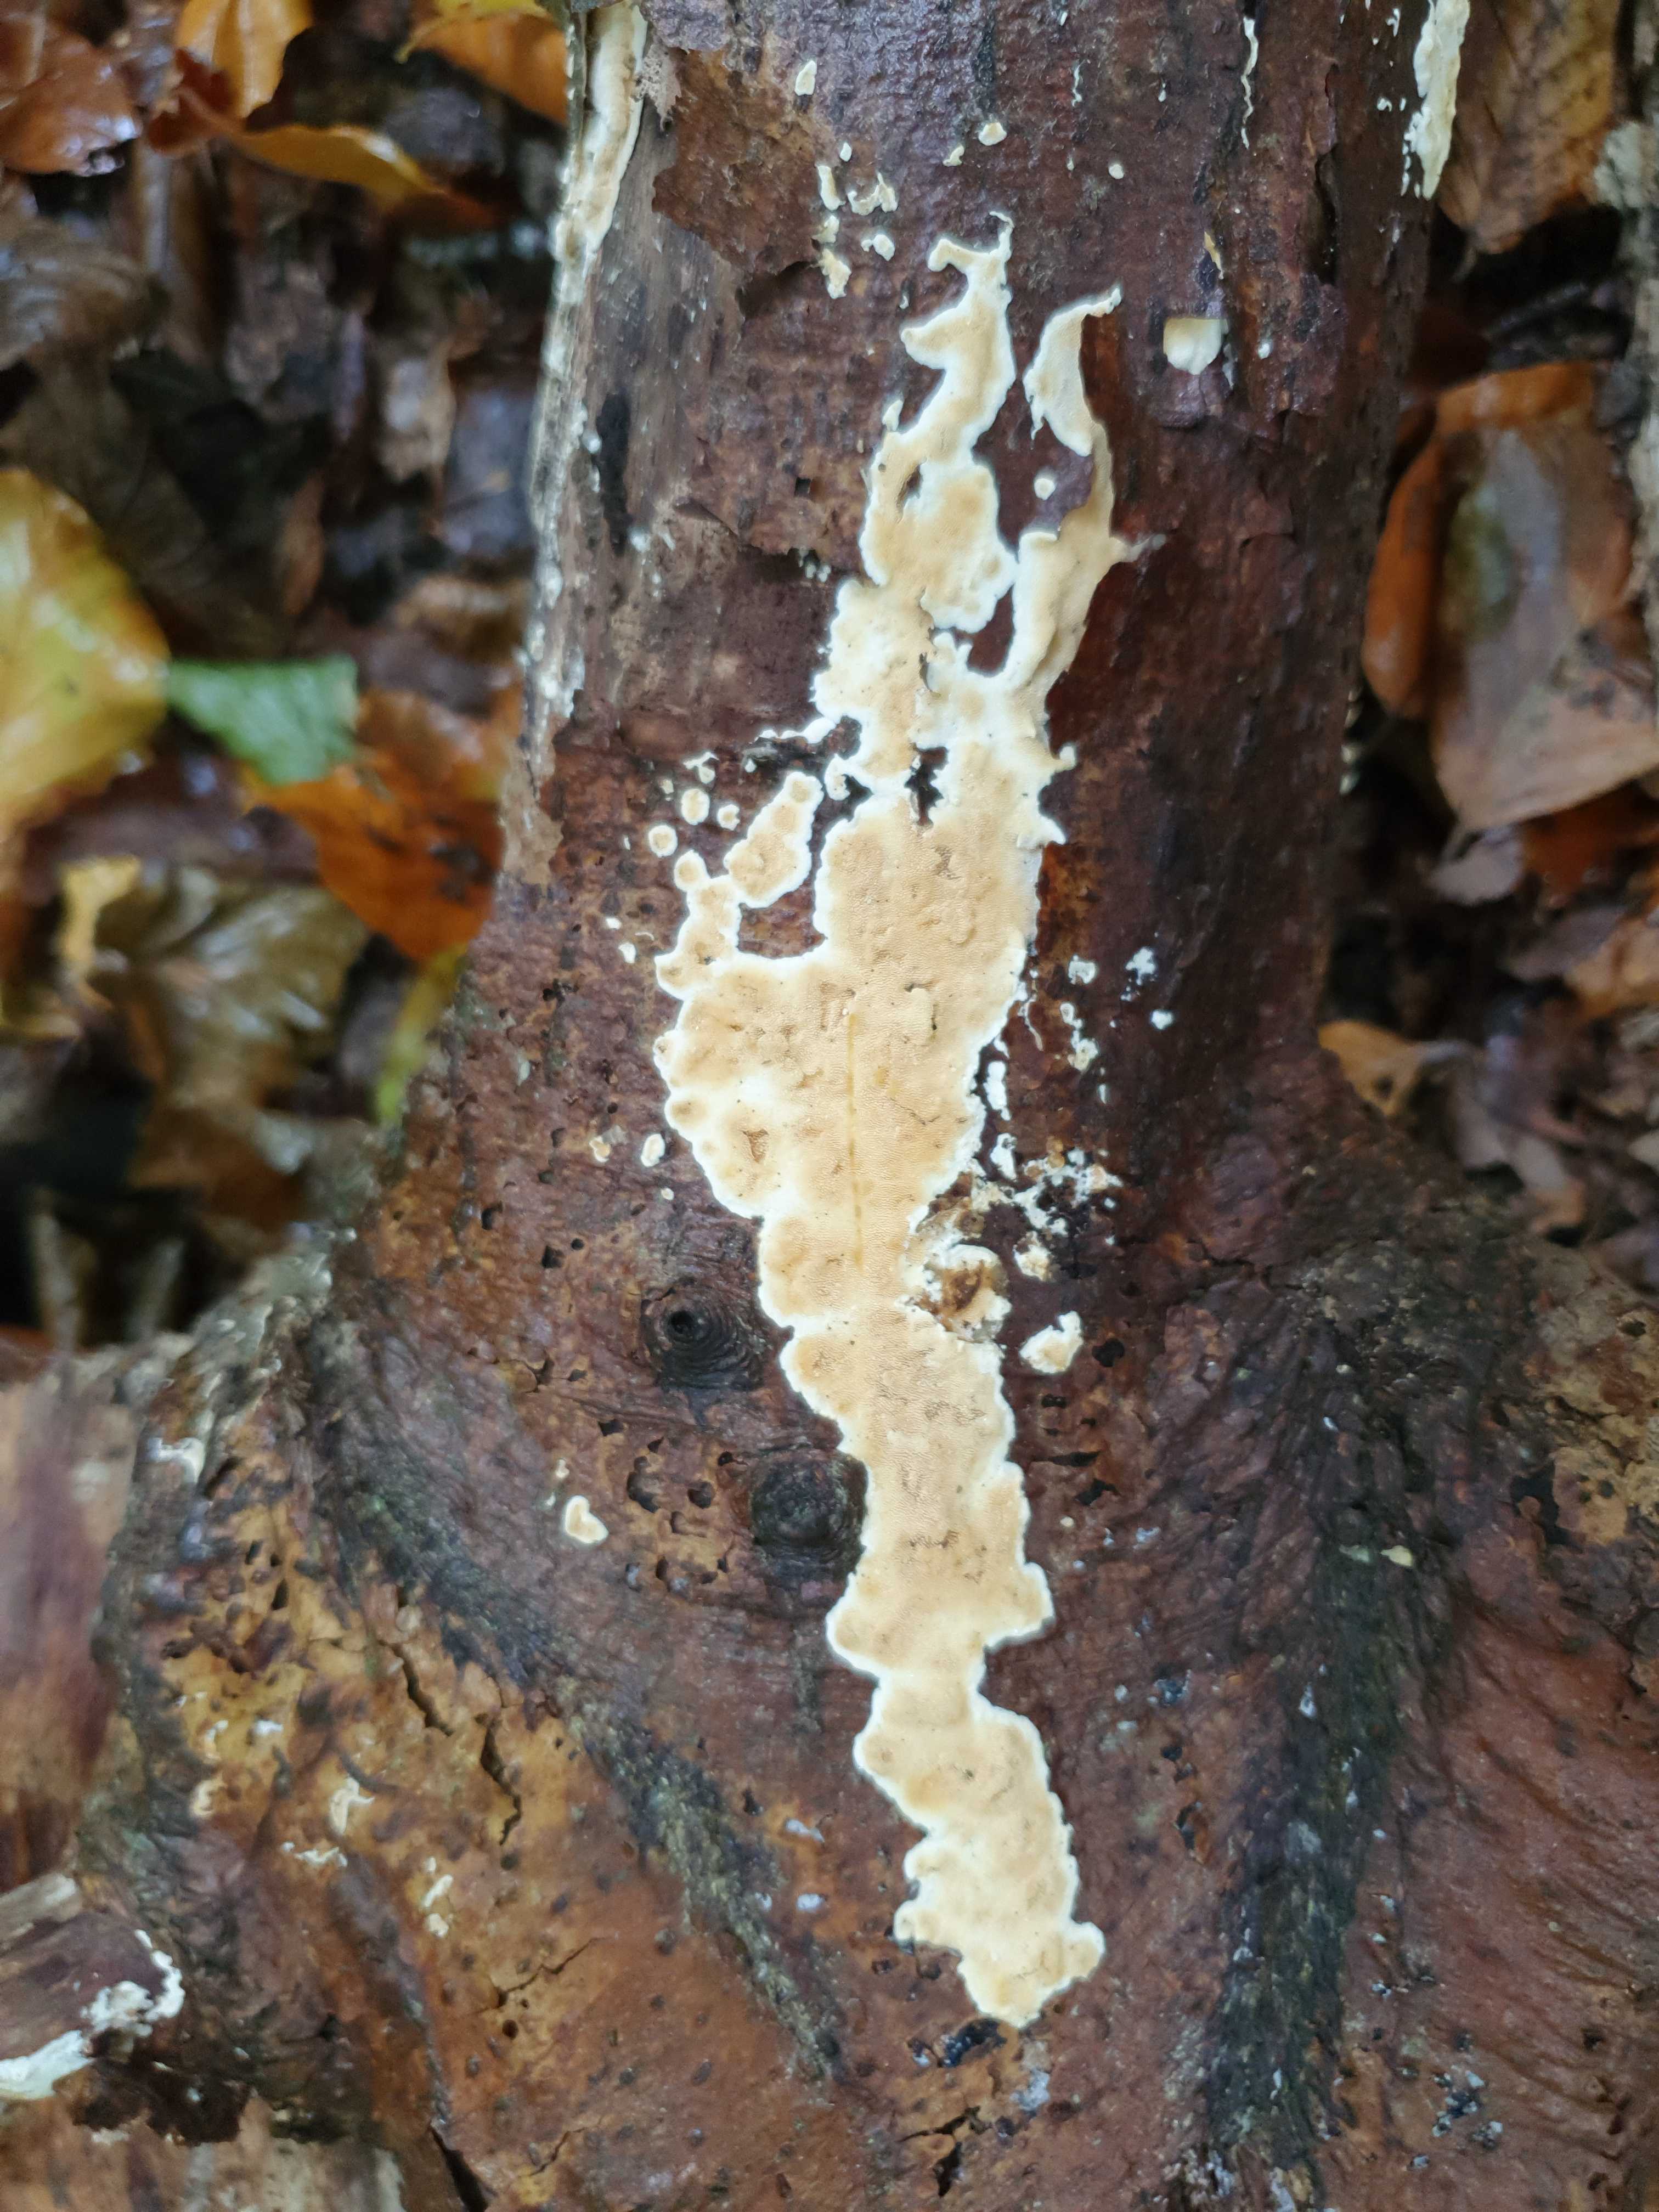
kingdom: Fungi
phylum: Basidiomycota
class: Agaricomycetes
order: Polyporales
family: Steccherinaceae
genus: Steccherinum
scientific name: Steccherinum ochraceum
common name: almindelig skønpig
